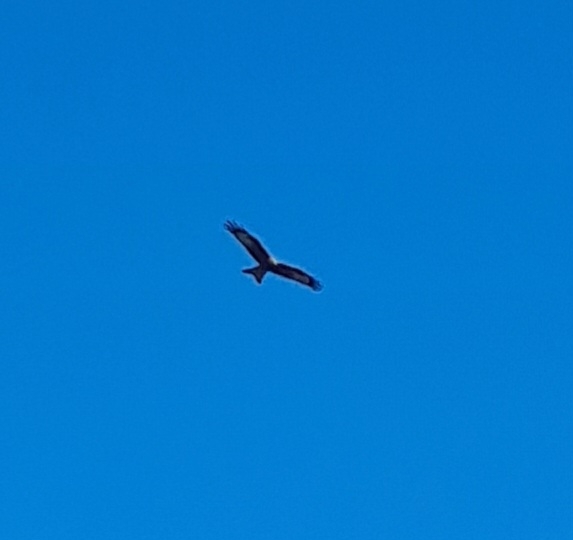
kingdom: Animalia
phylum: Chordata
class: Aves
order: Accipitriformes
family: Accipitridae
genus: Milvus
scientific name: Milvus milvus
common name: Rød glente
